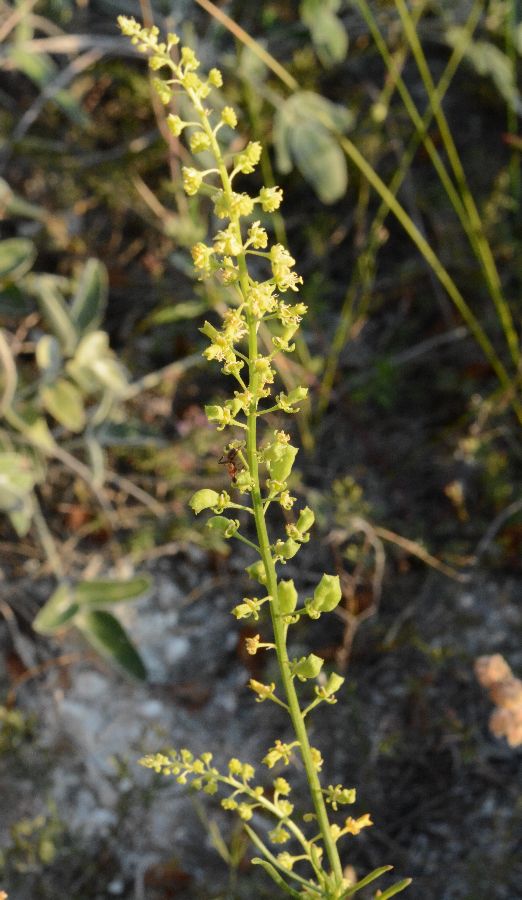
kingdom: Plantae
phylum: Tracheophyta
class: Magnoliopsida
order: Brassicales
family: Resedaceae
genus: Reseda
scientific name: Reseda lutea
